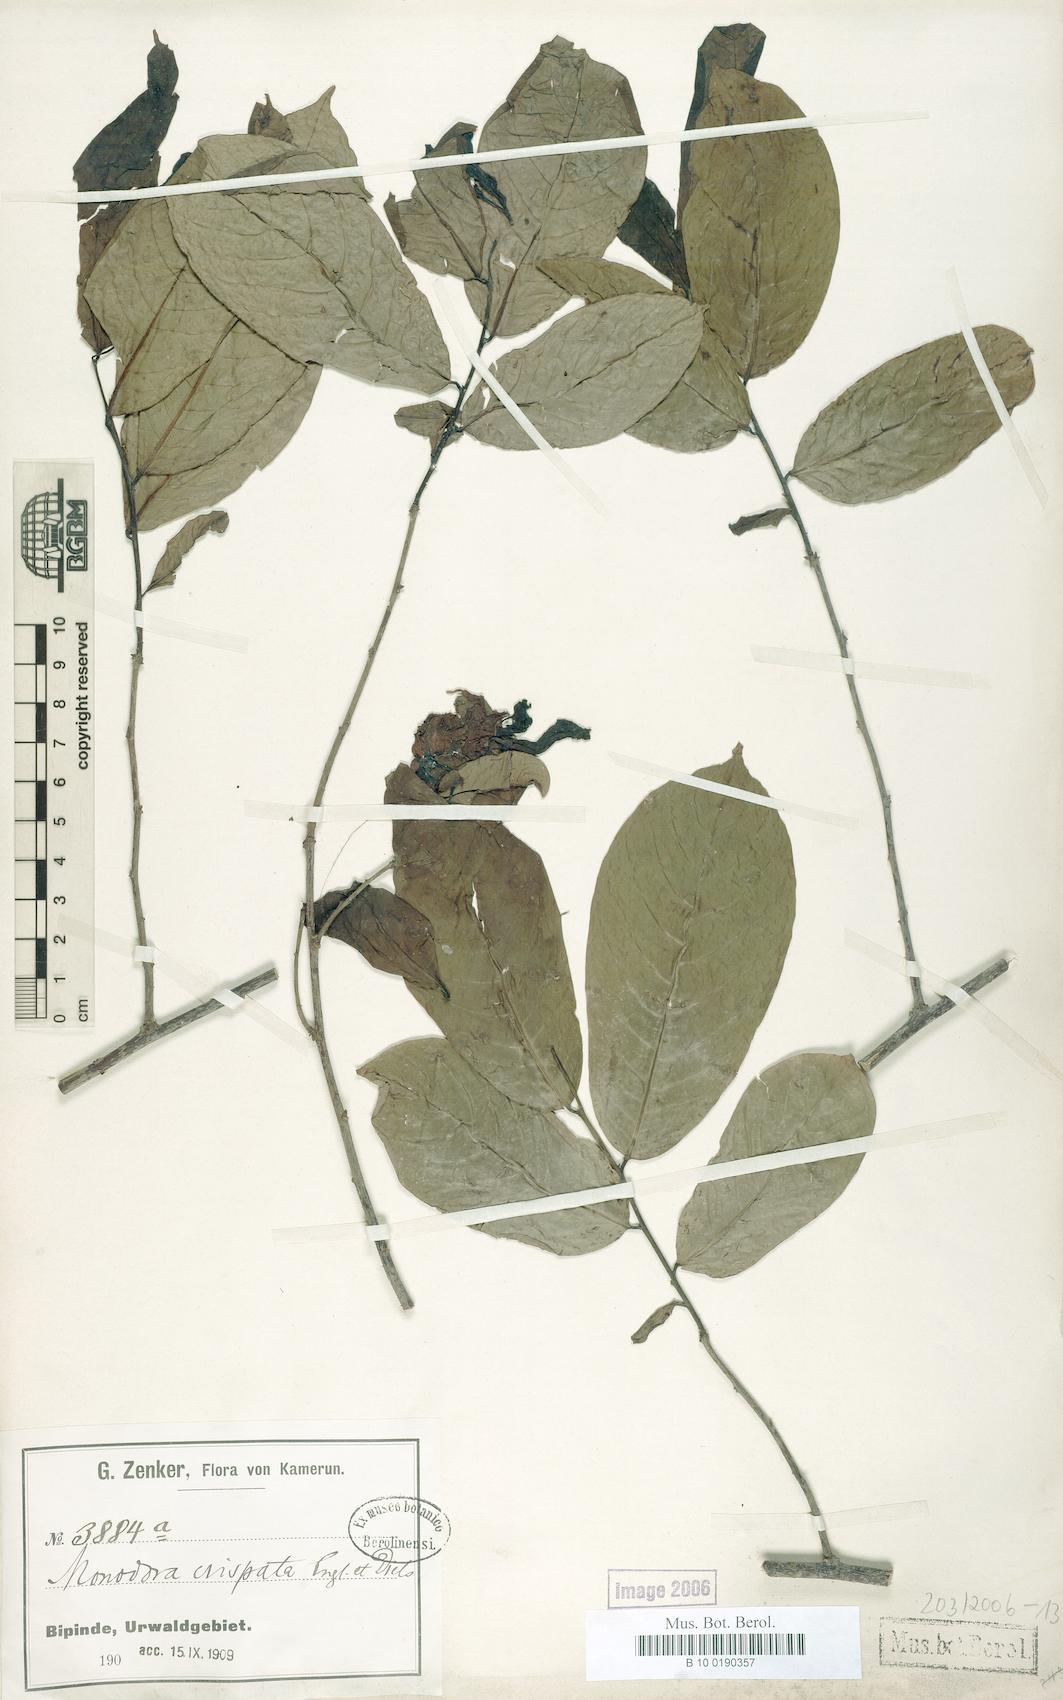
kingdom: Plantae
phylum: Tracheophyta
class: Magnoliopsida
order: Magnoliales
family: Annonaceae
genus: Monodora
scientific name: Monodora crispata
